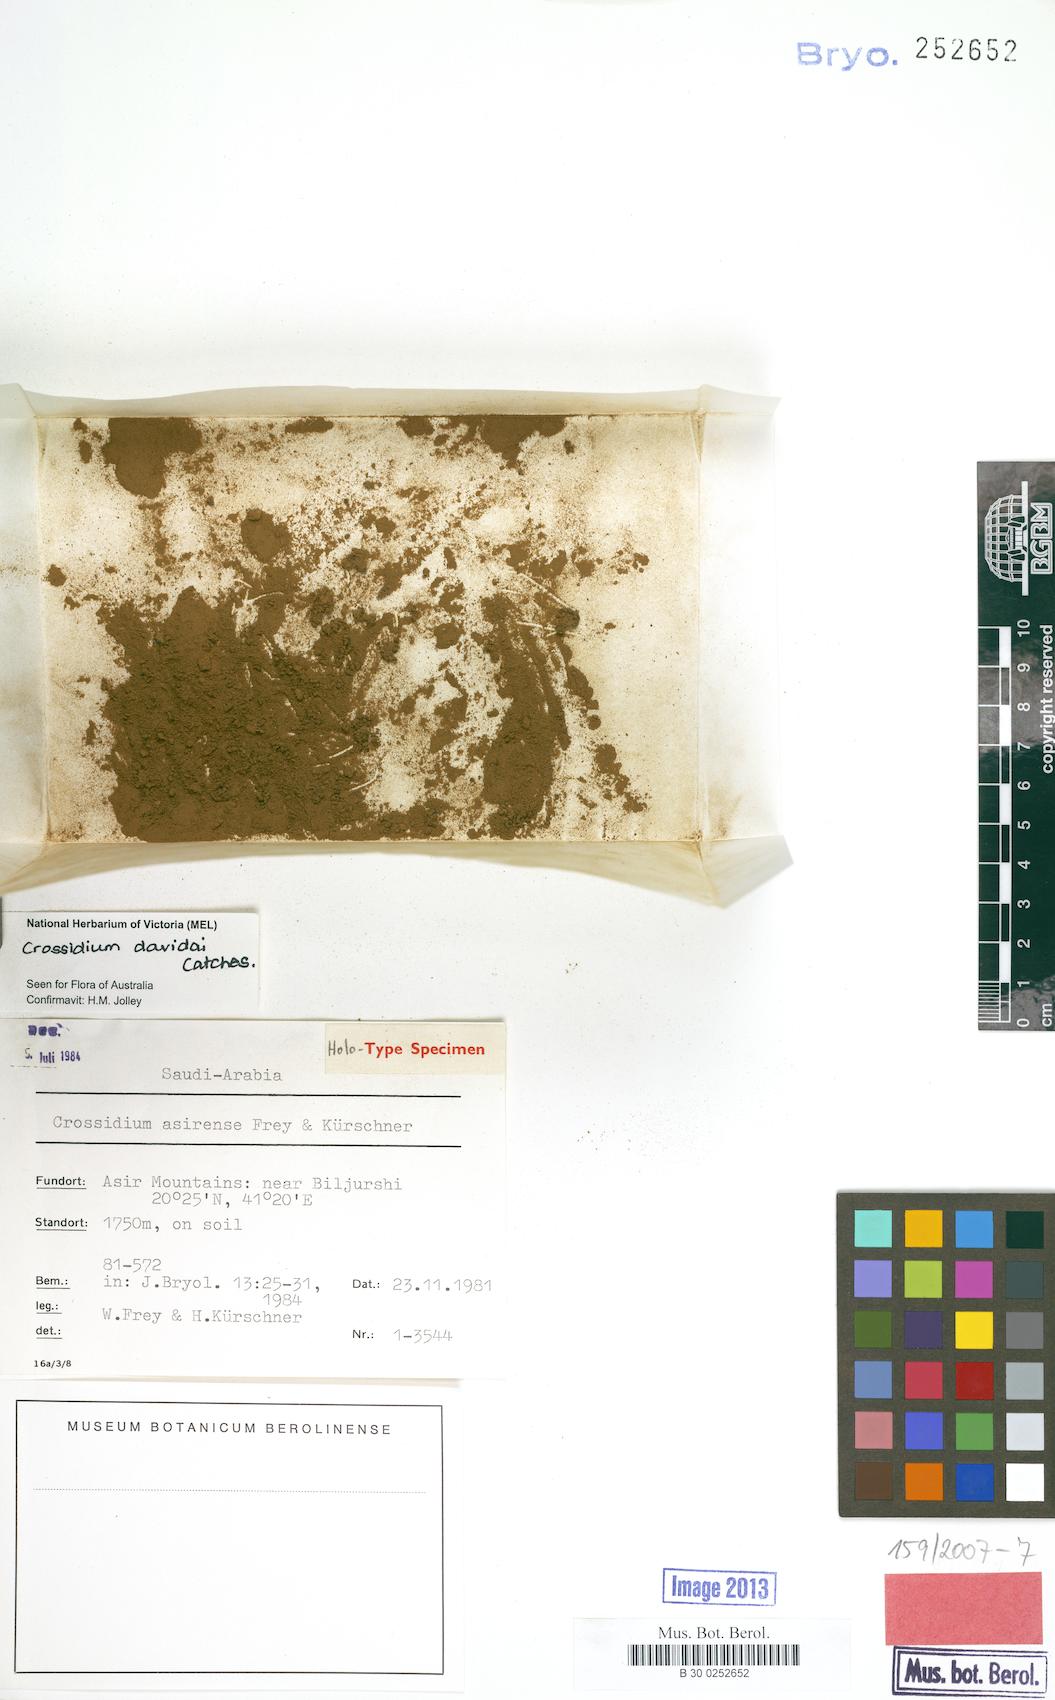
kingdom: Plantae
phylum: Bryophyta
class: Bryopsida
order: Pottiales
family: Pottiaceae
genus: Crossidium
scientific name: Crossidium davidai
